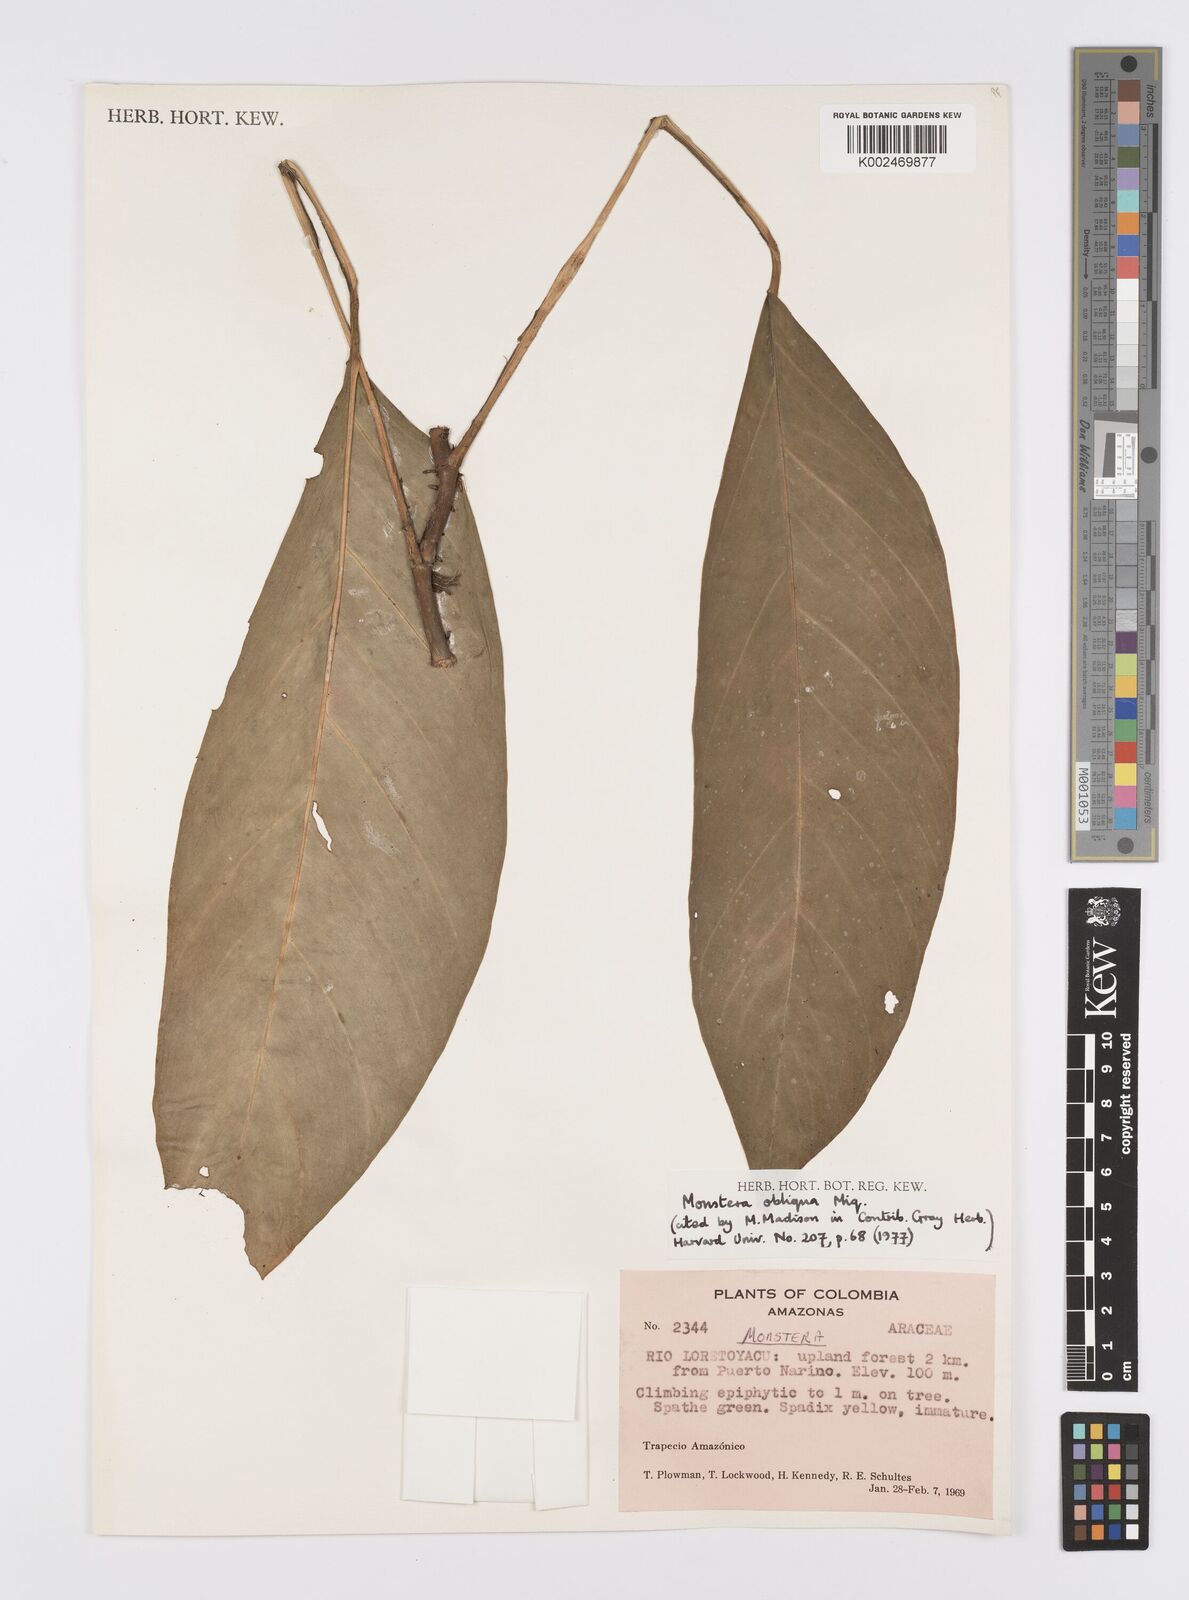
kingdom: Plantae
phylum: Tracheophyta
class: Liliopsida
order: Alismatales
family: Araceae
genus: Monstera
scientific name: Monstera obliqua
